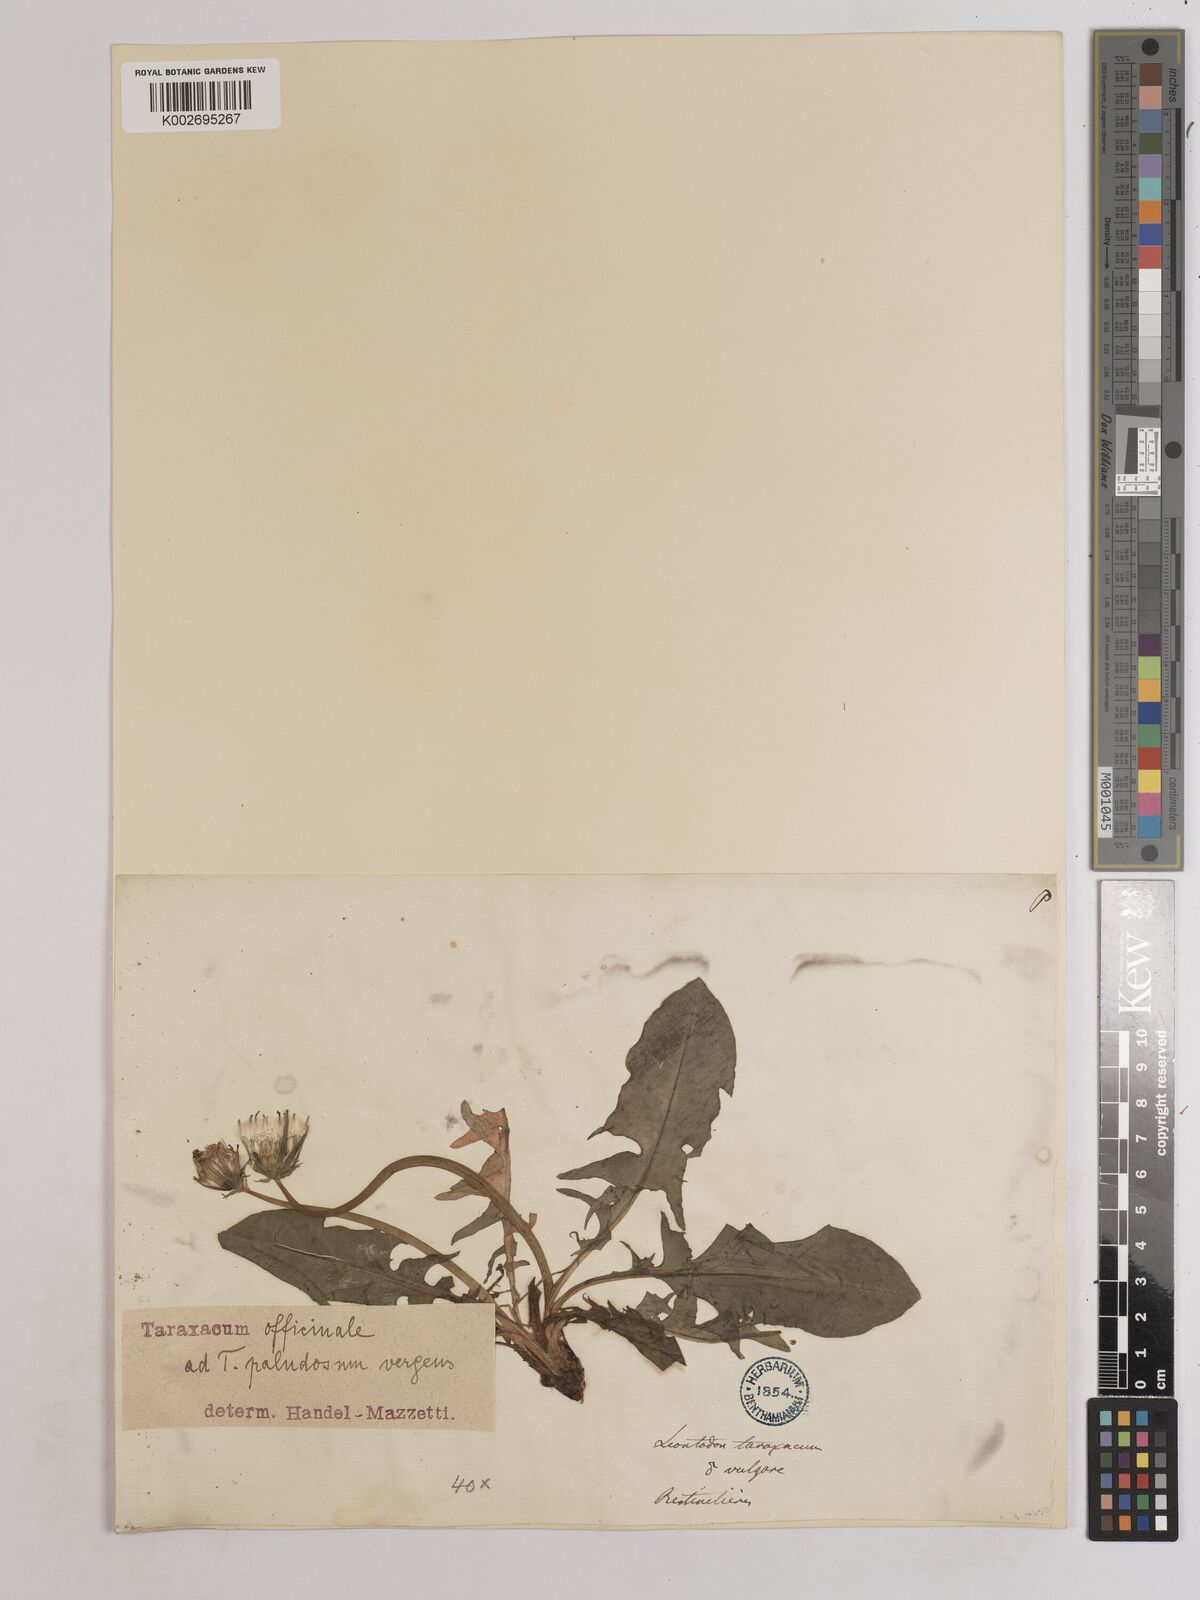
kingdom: Plantae
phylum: Tracheophyta
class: Magnoliopsida
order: Asterales
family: Asteraceae
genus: Taraxacum
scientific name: Taraxacum officinale
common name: Common dandelion
